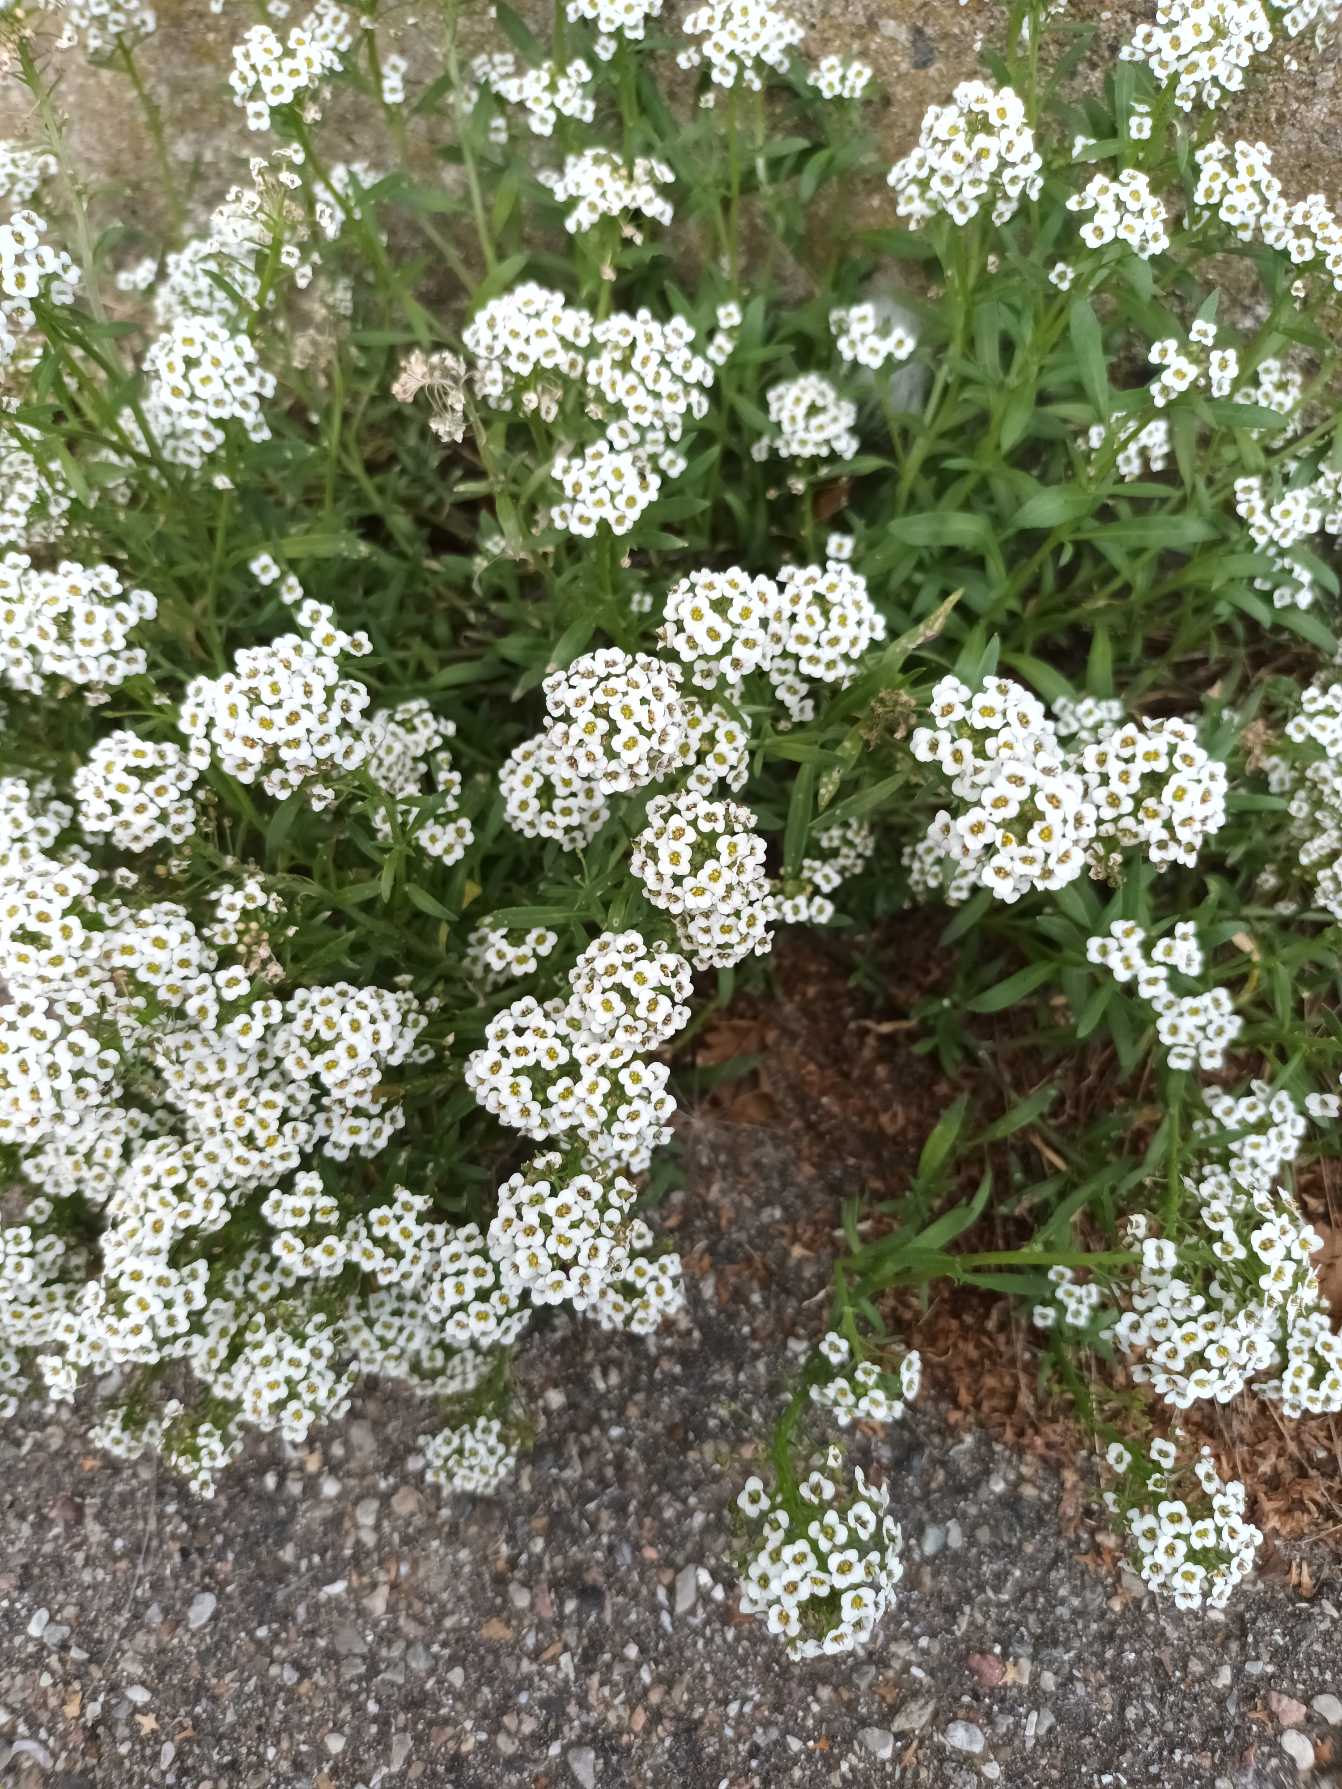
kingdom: Plantae
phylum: Tracheophyta
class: Magnoliopsida
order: Brassicales
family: Brassicaceae
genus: Lobularia
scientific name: Lobularia maritima
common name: Biblomme
